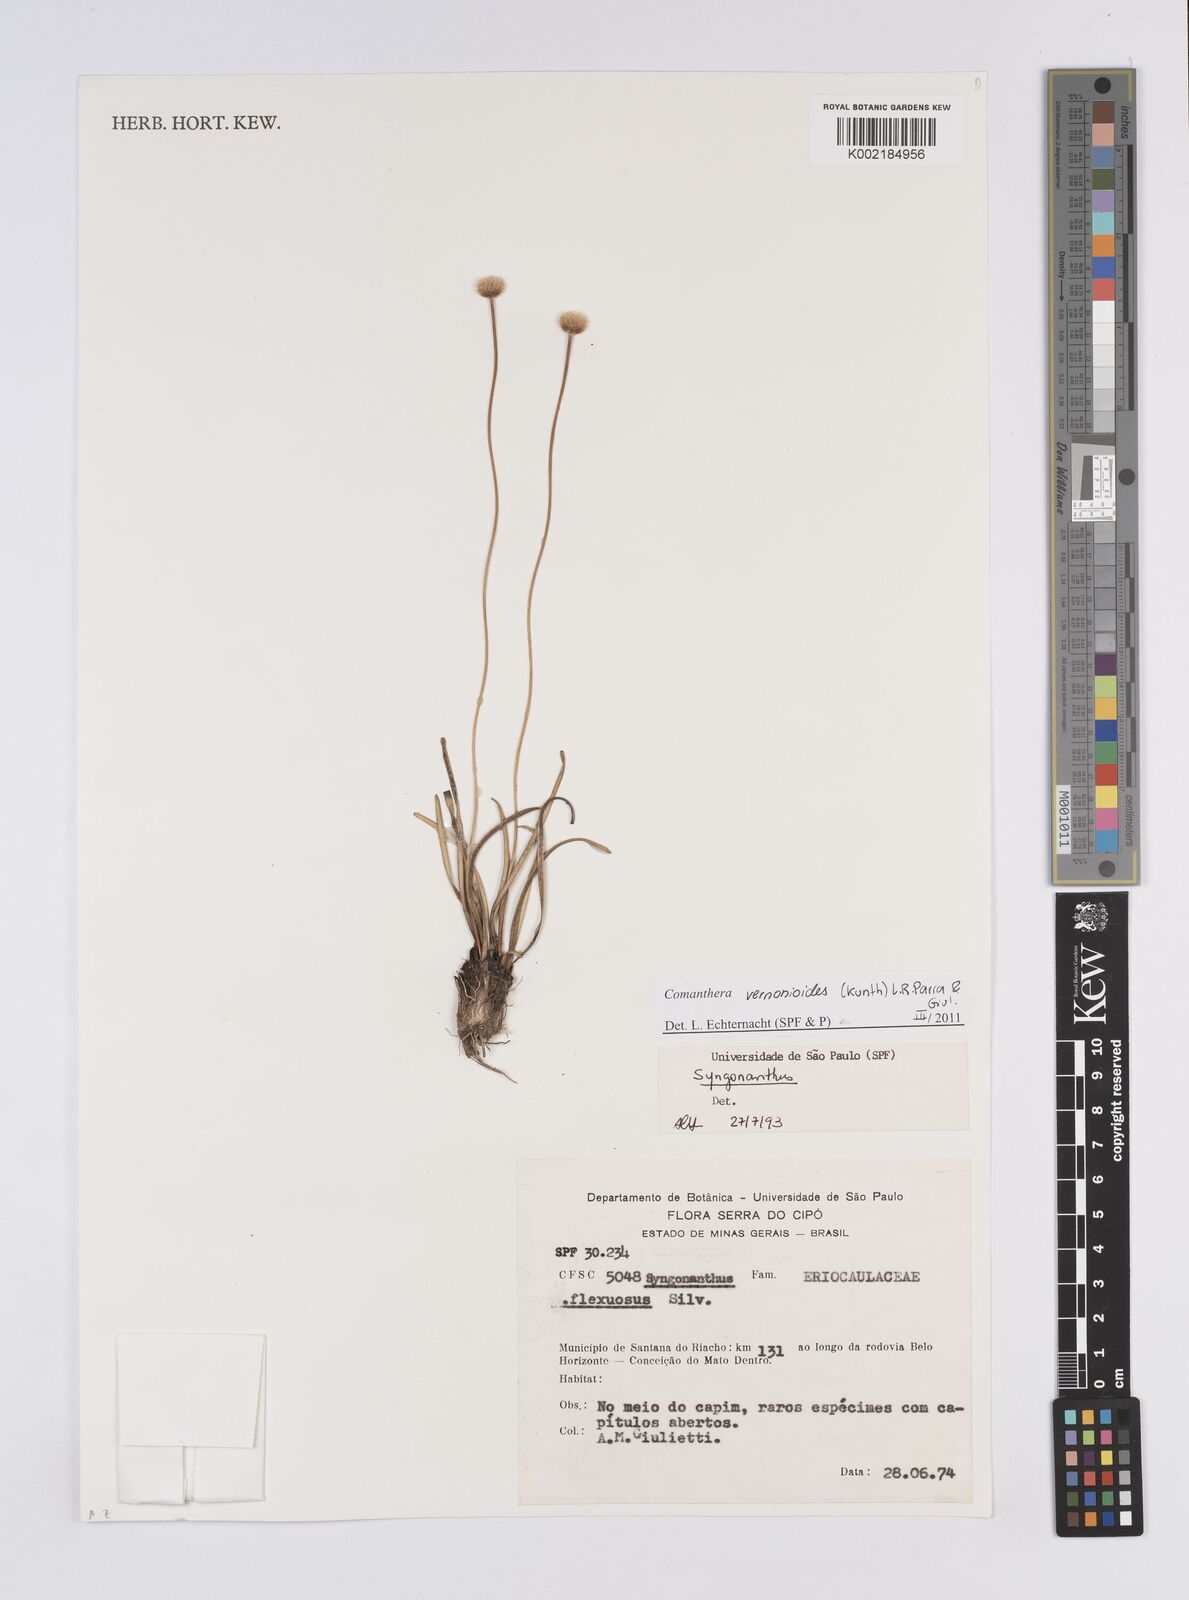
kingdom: Plantae
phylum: Tracheophyta
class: Liliopsida
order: Poales
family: Eriocaulaceae
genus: Comanthera
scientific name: Comanthera centauroides
